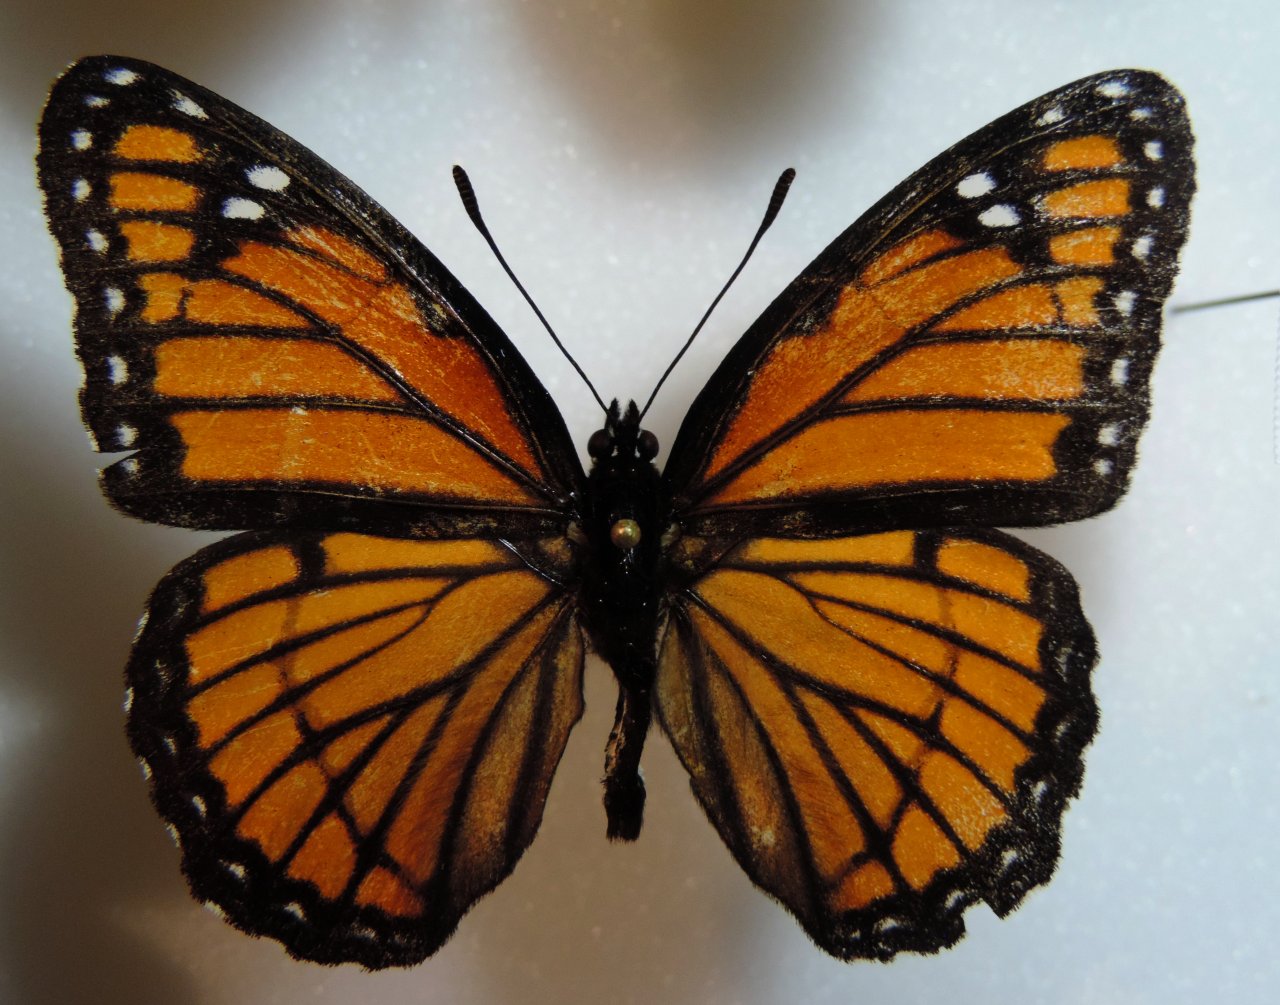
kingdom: Animalia
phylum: Arthropoda
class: Insecta
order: Lepidoptera
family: Nymphalidae
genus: Limenitis
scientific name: Limenitis archippus
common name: Viceroy
